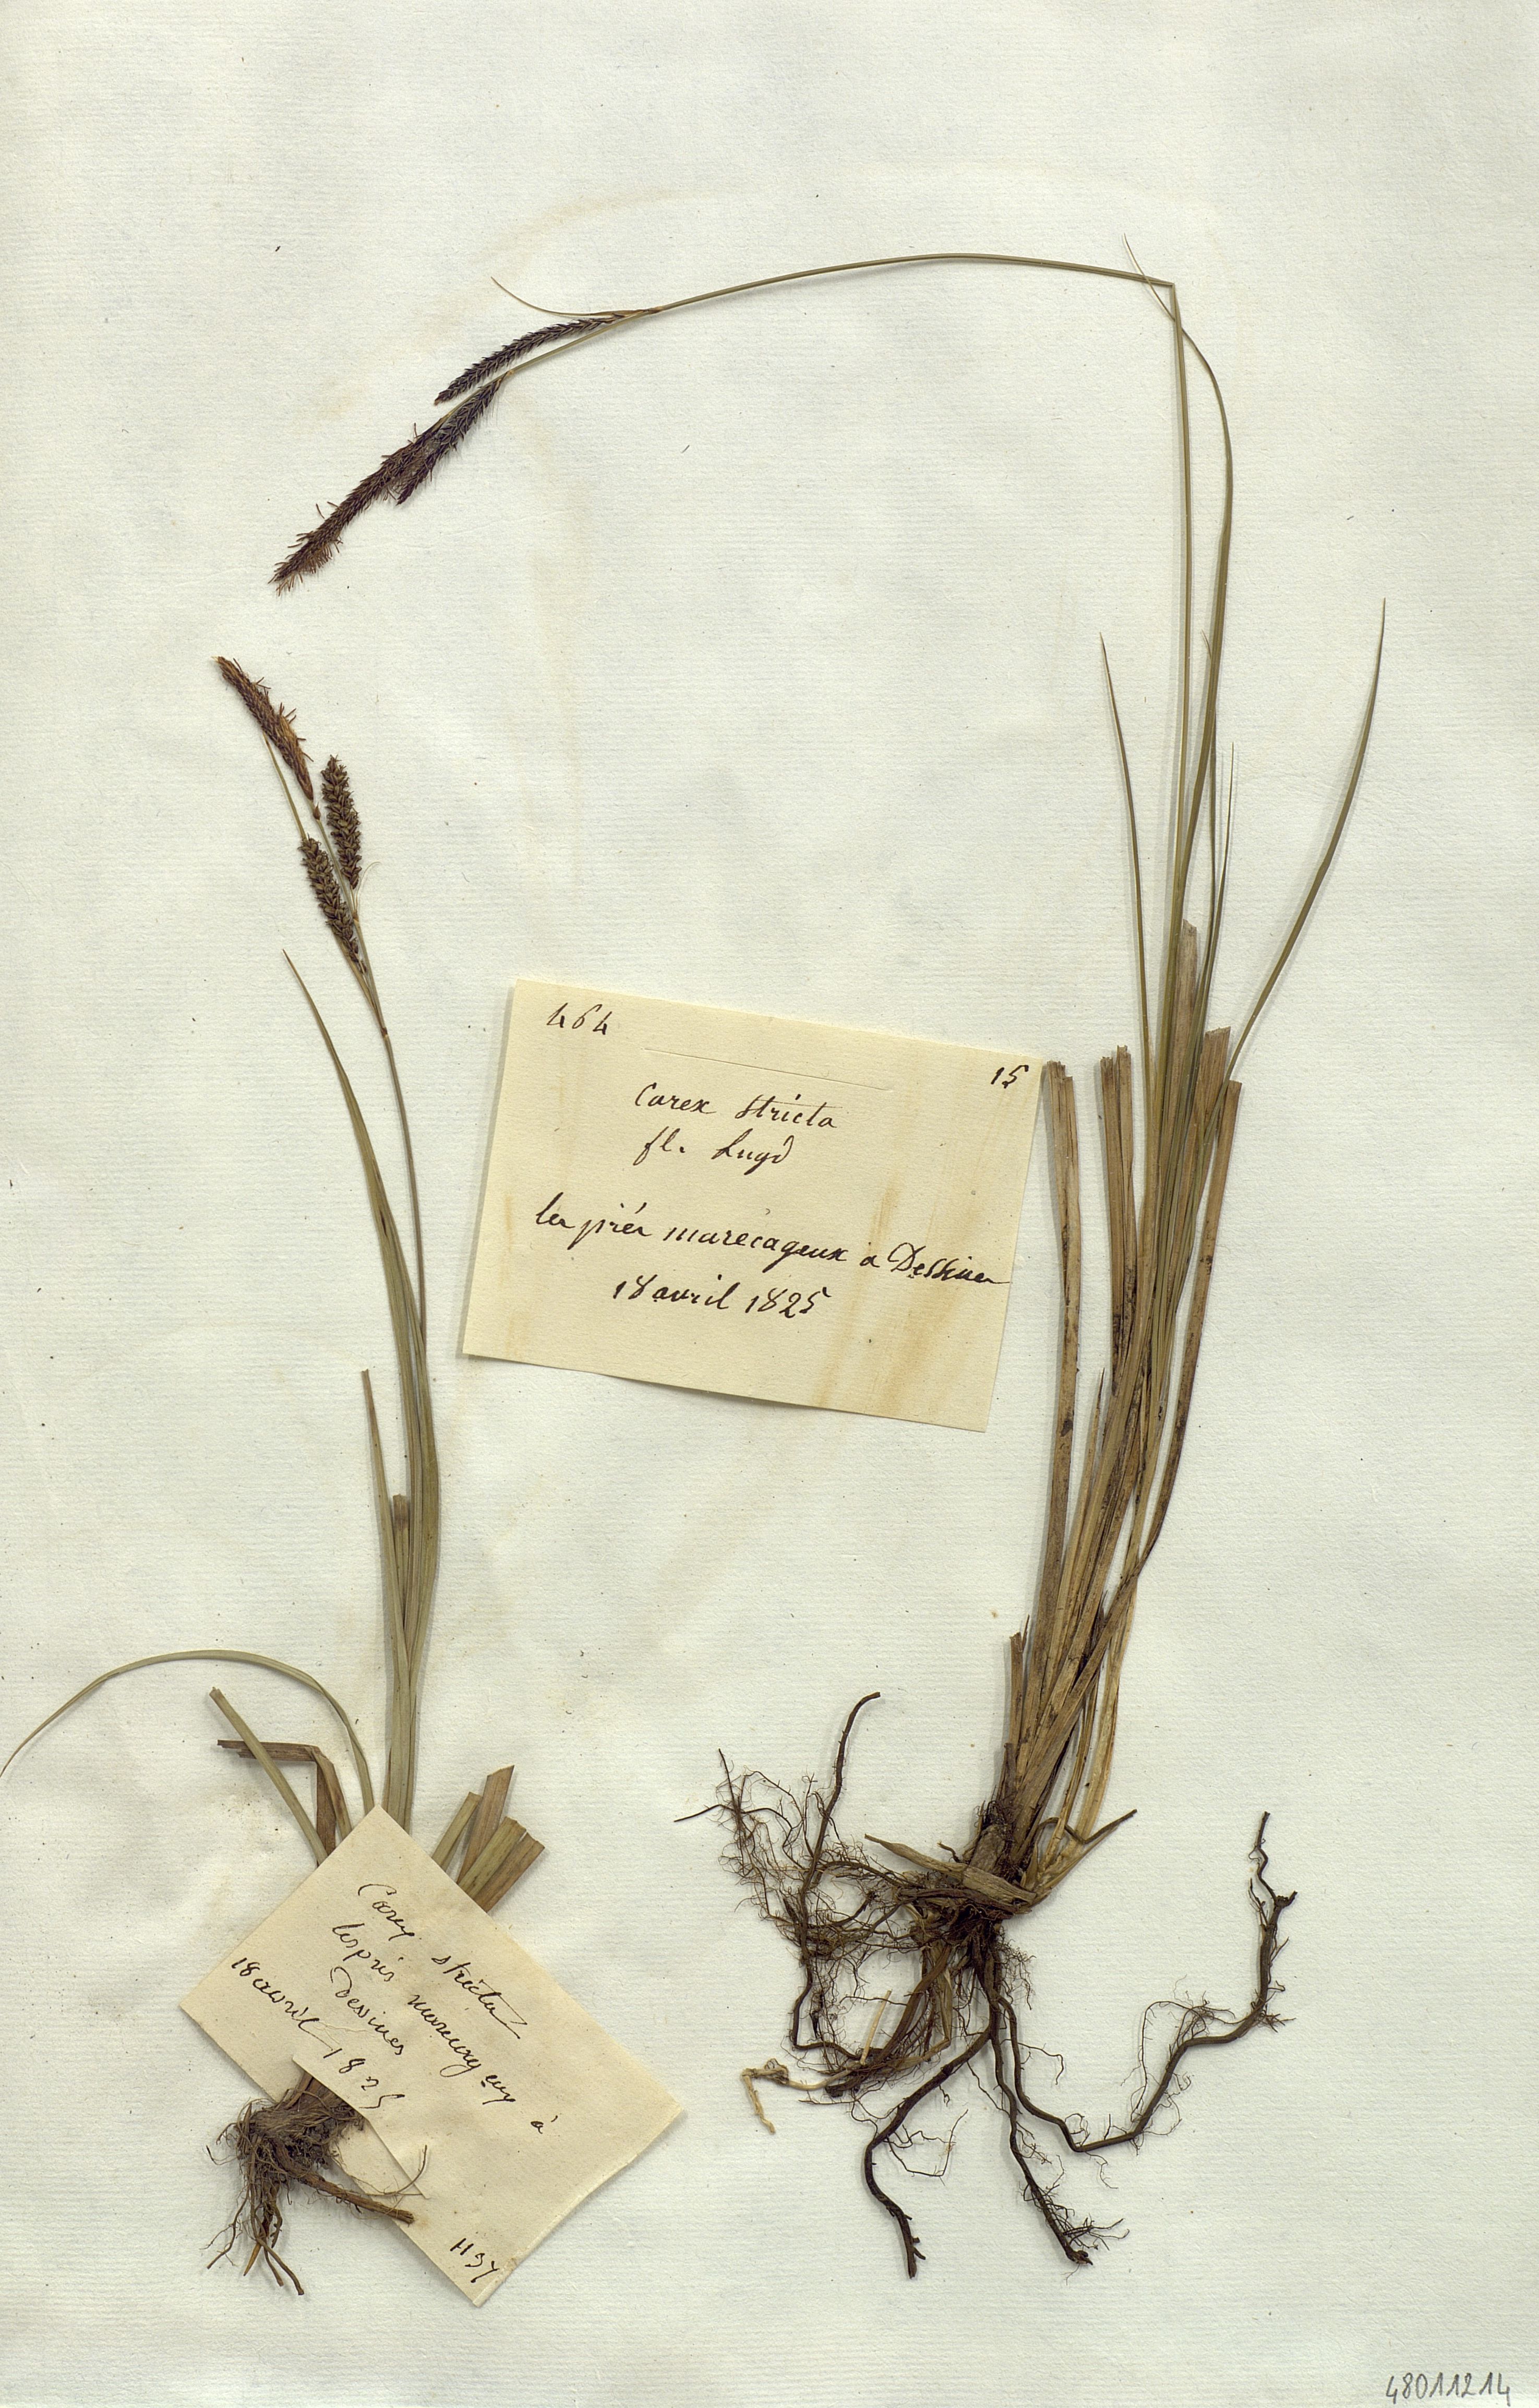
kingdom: Plantae
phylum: Tracheophyta
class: Liliopsida
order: Poales
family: Cyperaceae
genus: Carex
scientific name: Carex stricta
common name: Hummock sedge
